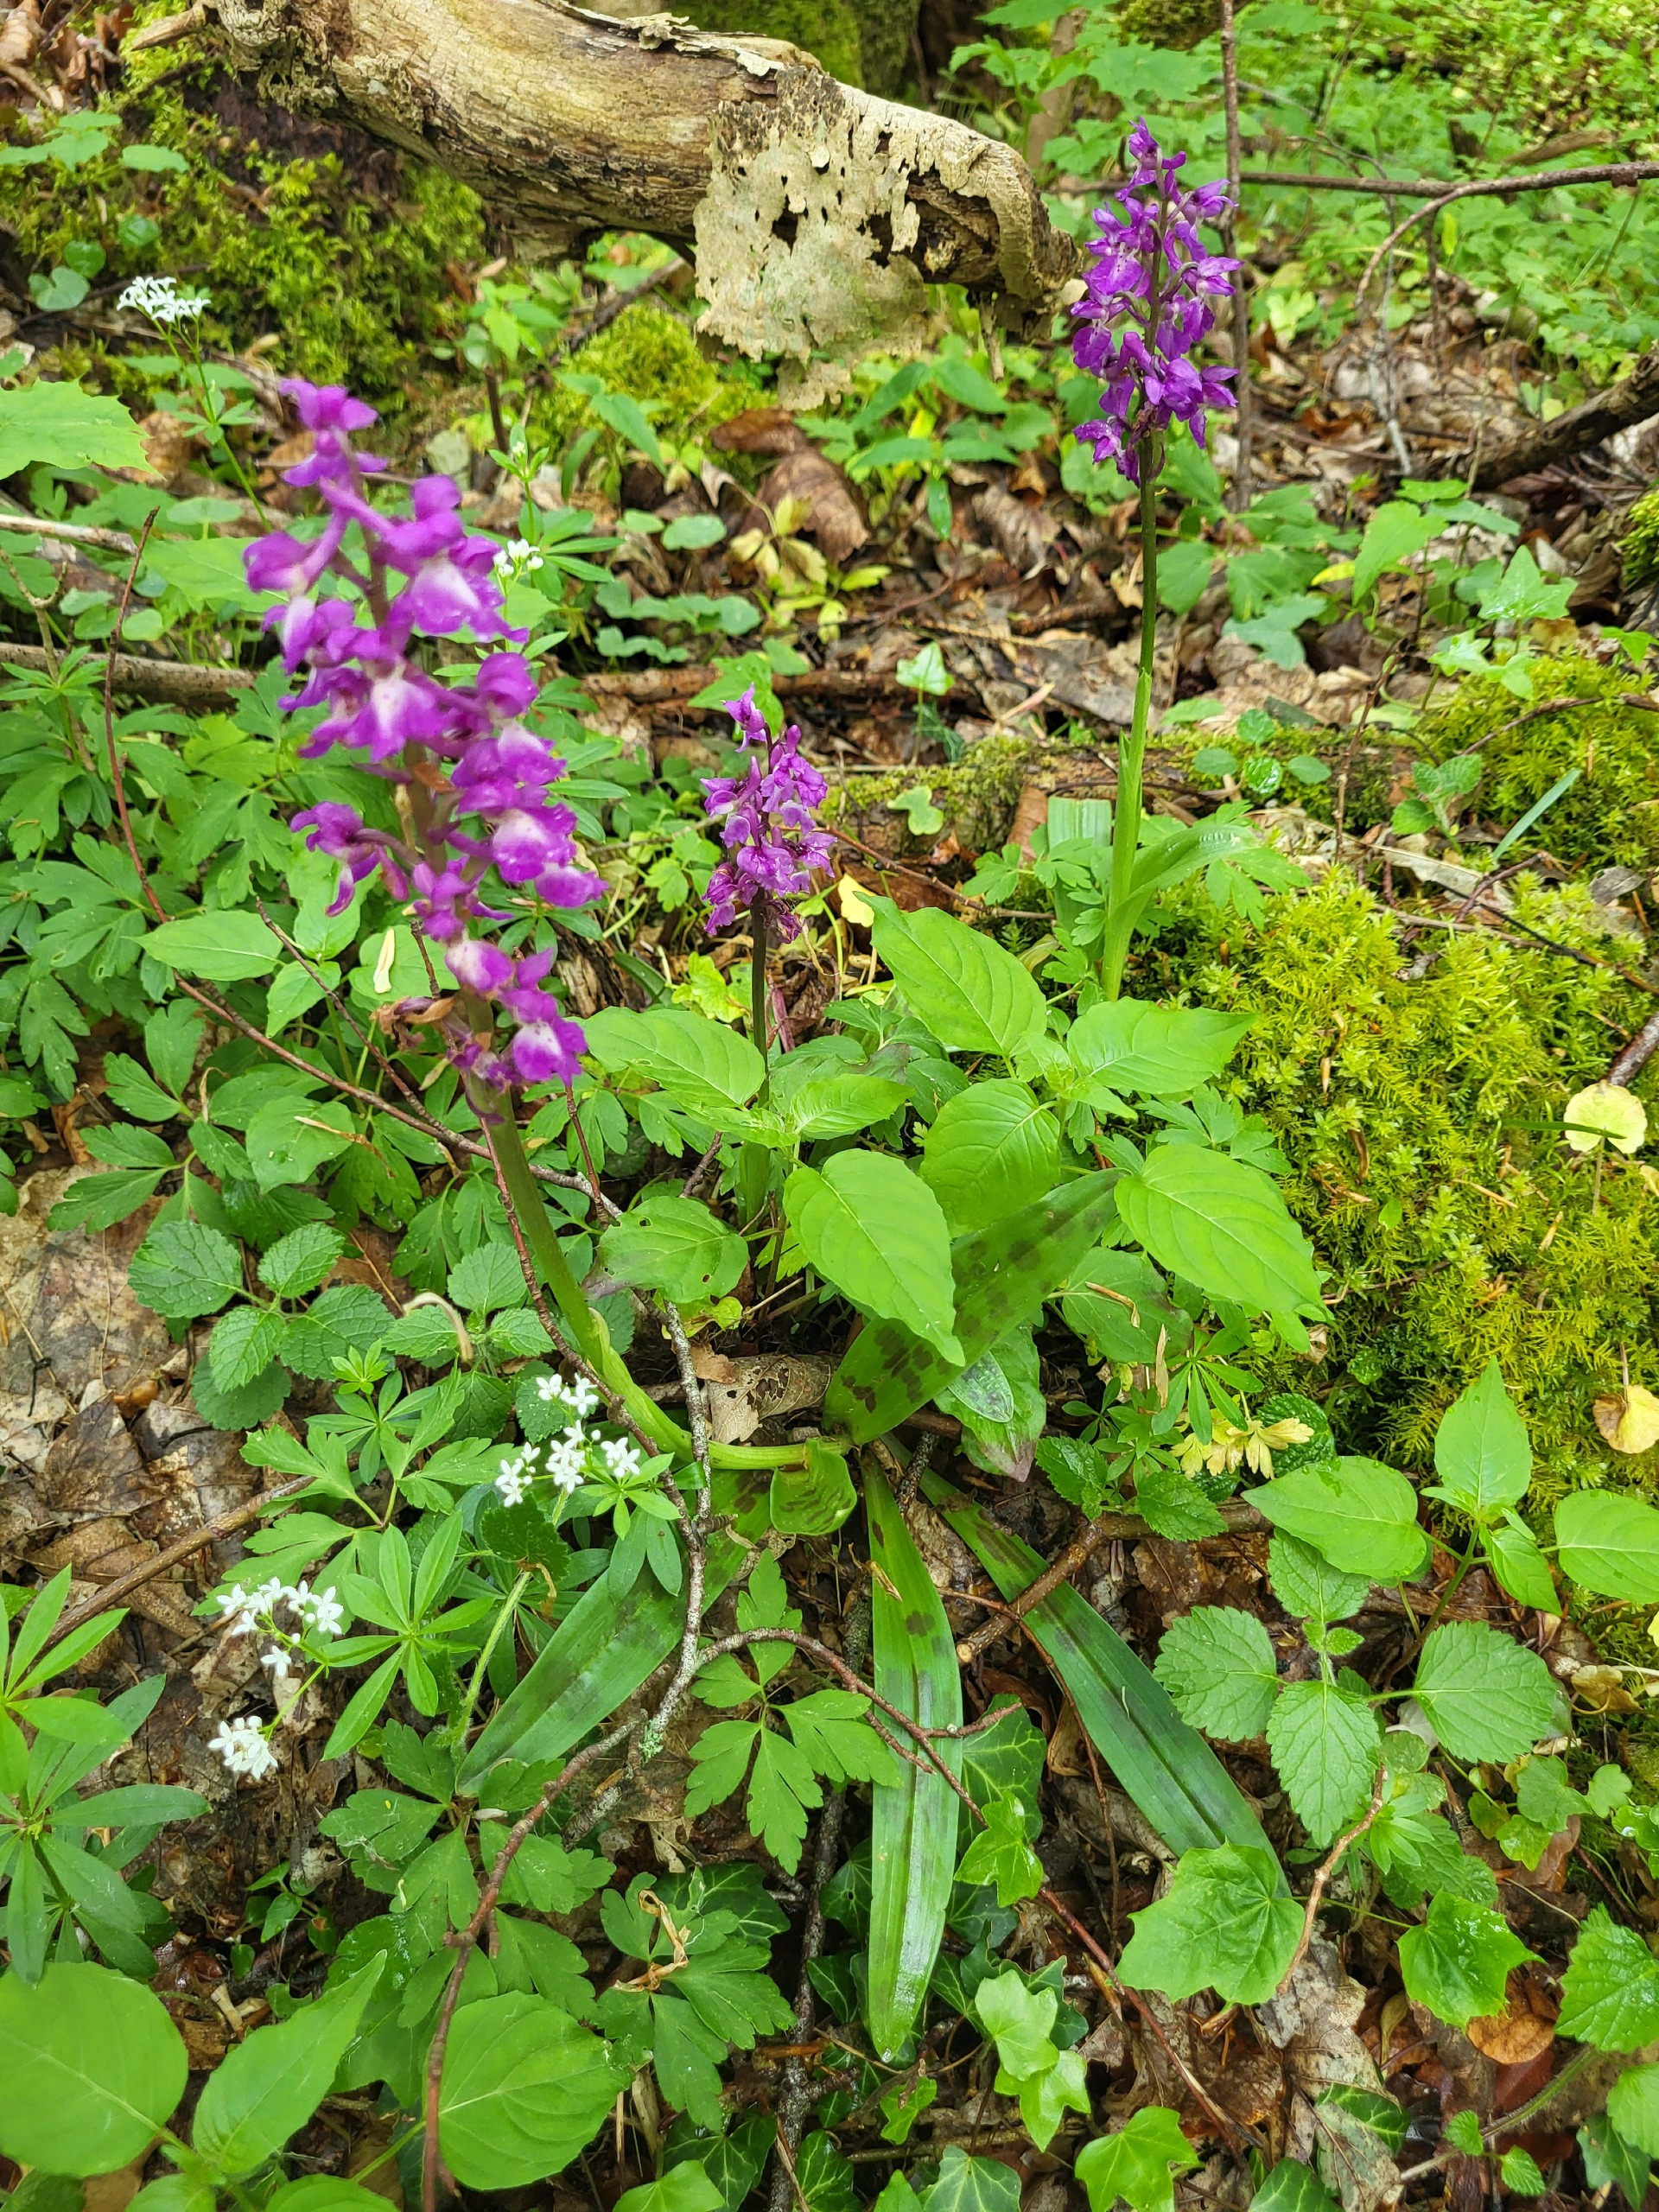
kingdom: Plantae
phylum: Tracheophyta
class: Liliopsida
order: Asparagales
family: Orchidaceae
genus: Orchis
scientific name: Orchis mascula
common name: Tyndakset gøgeurt
